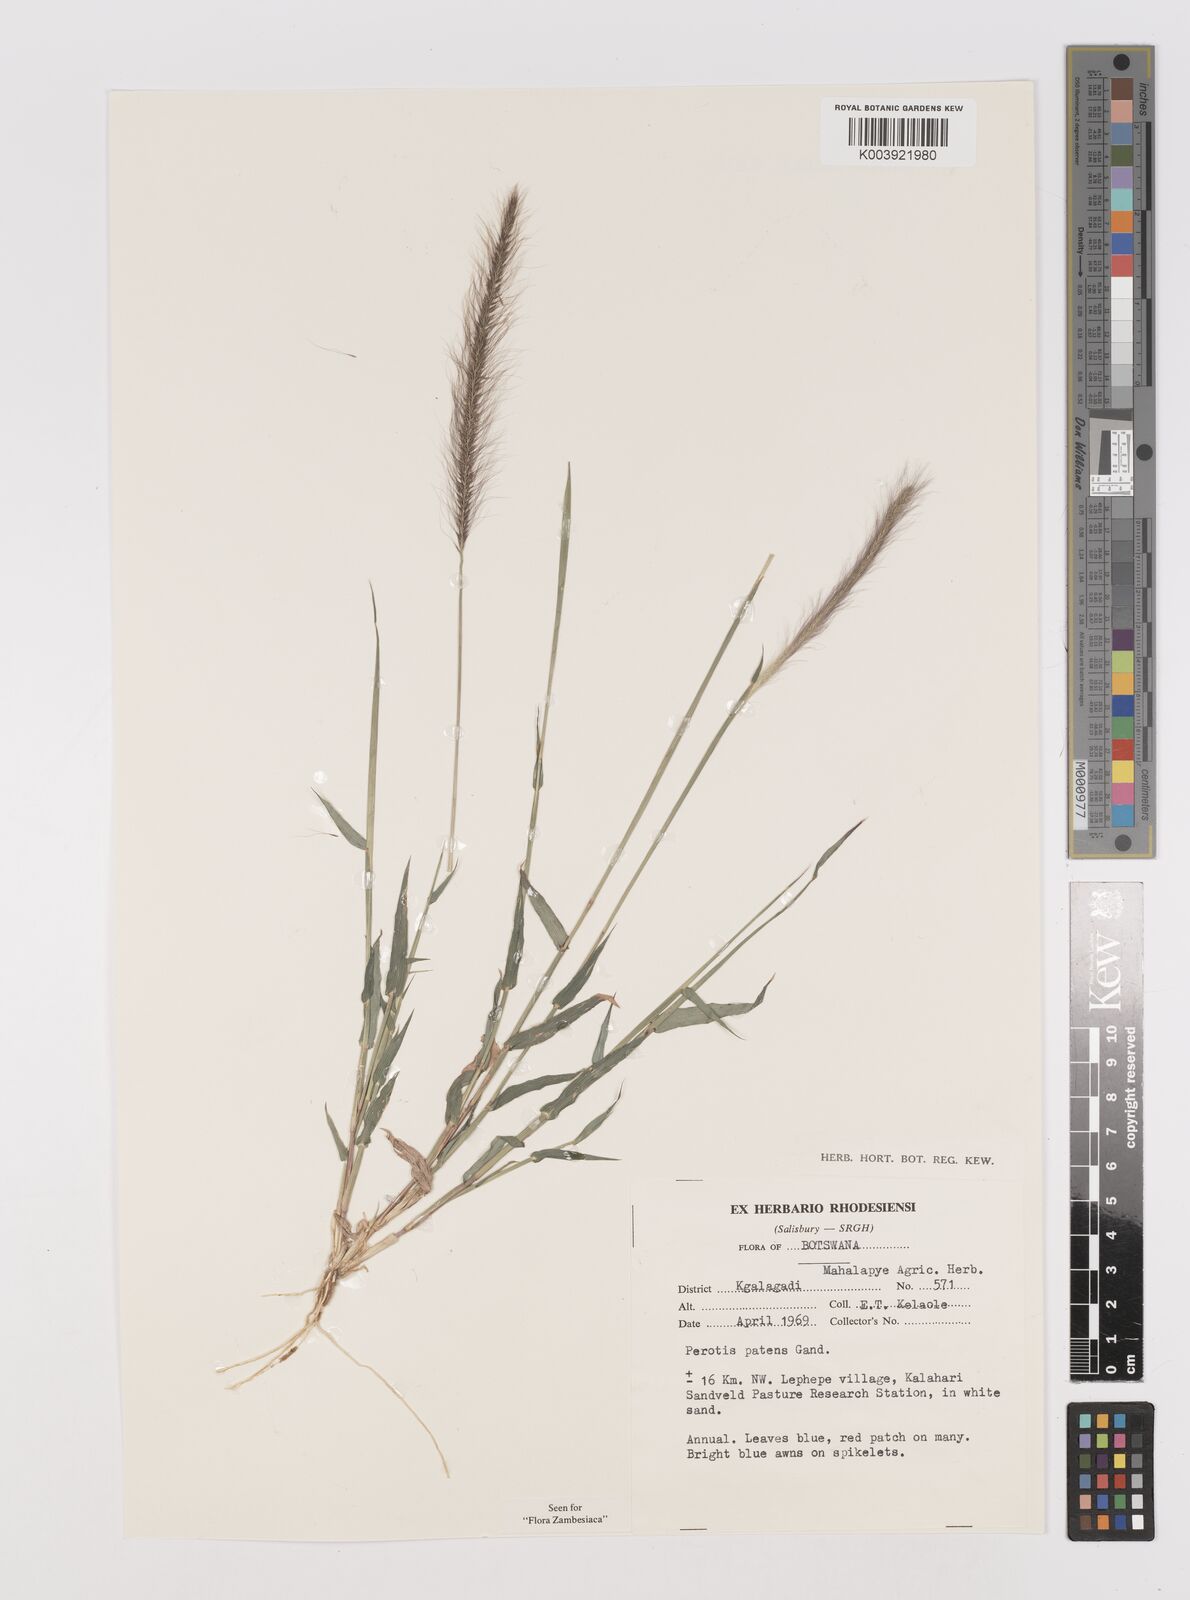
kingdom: Plantae
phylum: Tracheophyta
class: Liliopsida
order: Poales
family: Poaceae
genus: Perotis
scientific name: Perotis patens
